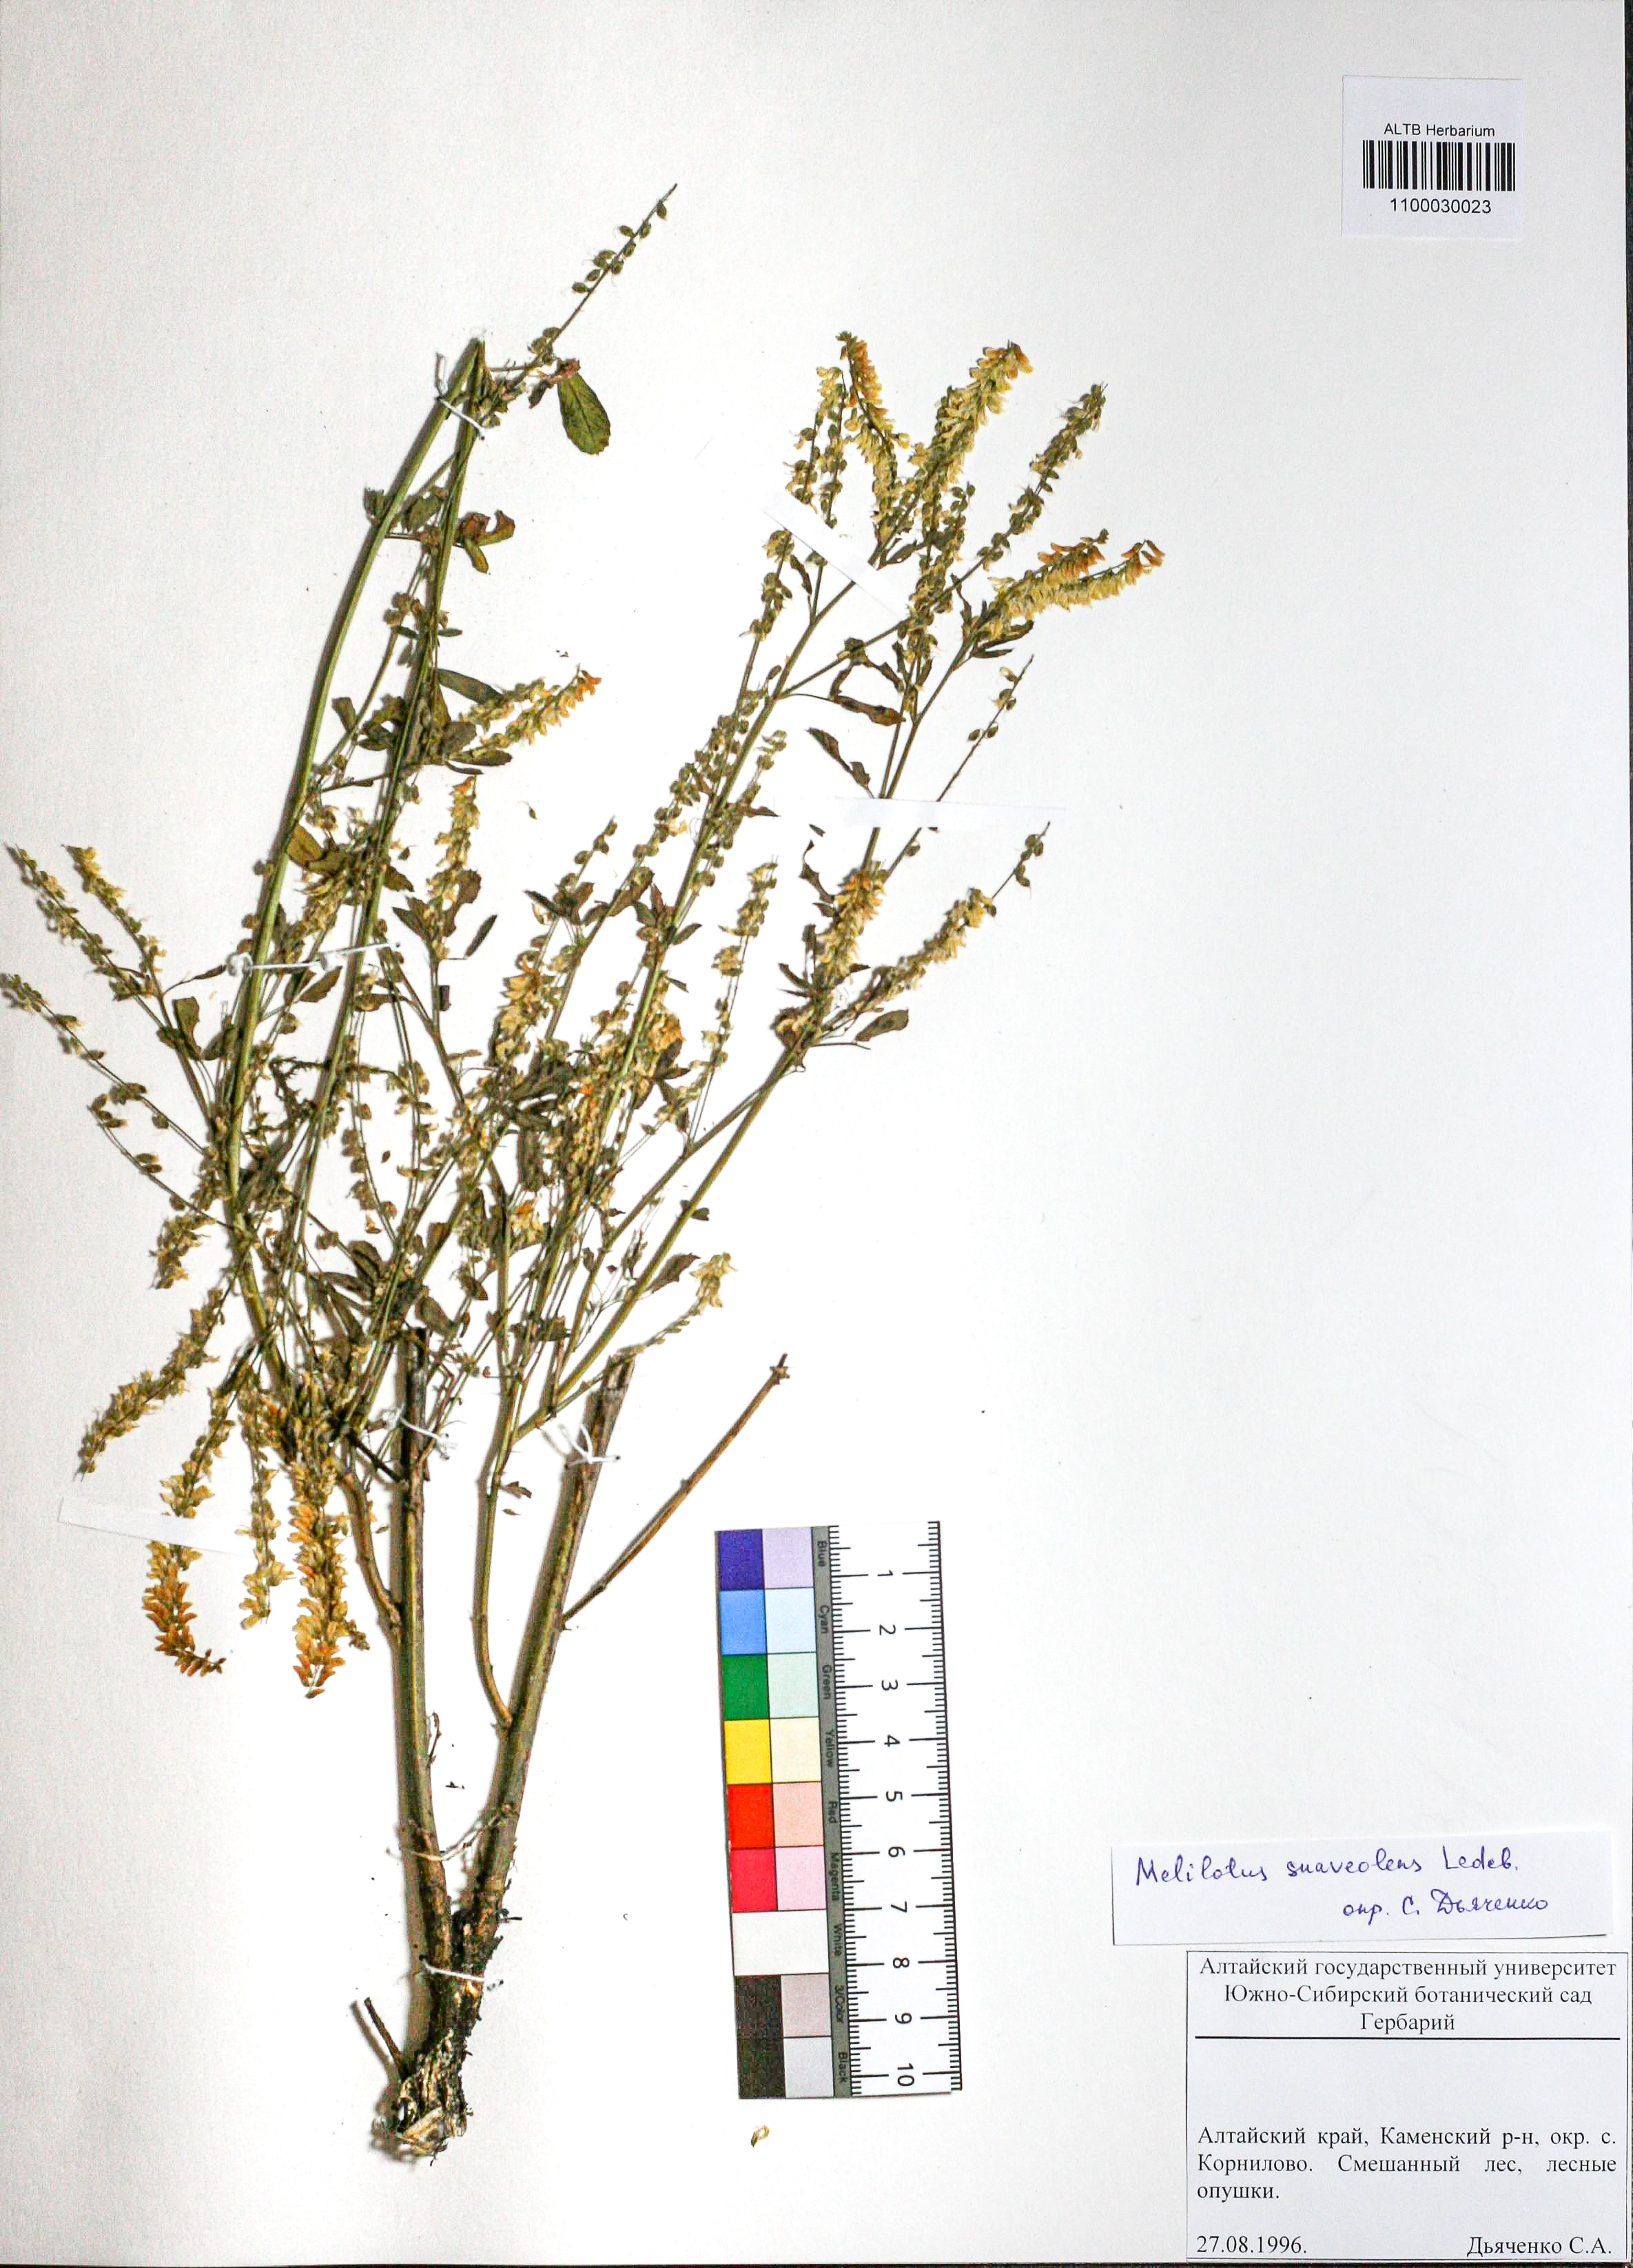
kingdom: Plantae
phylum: Tracheophyta
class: Magnoliopsida
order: Fabales
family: Fabaceae
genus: Melilotus
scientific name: Melilotus suaveolens
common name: Daghestan sweet-clover
